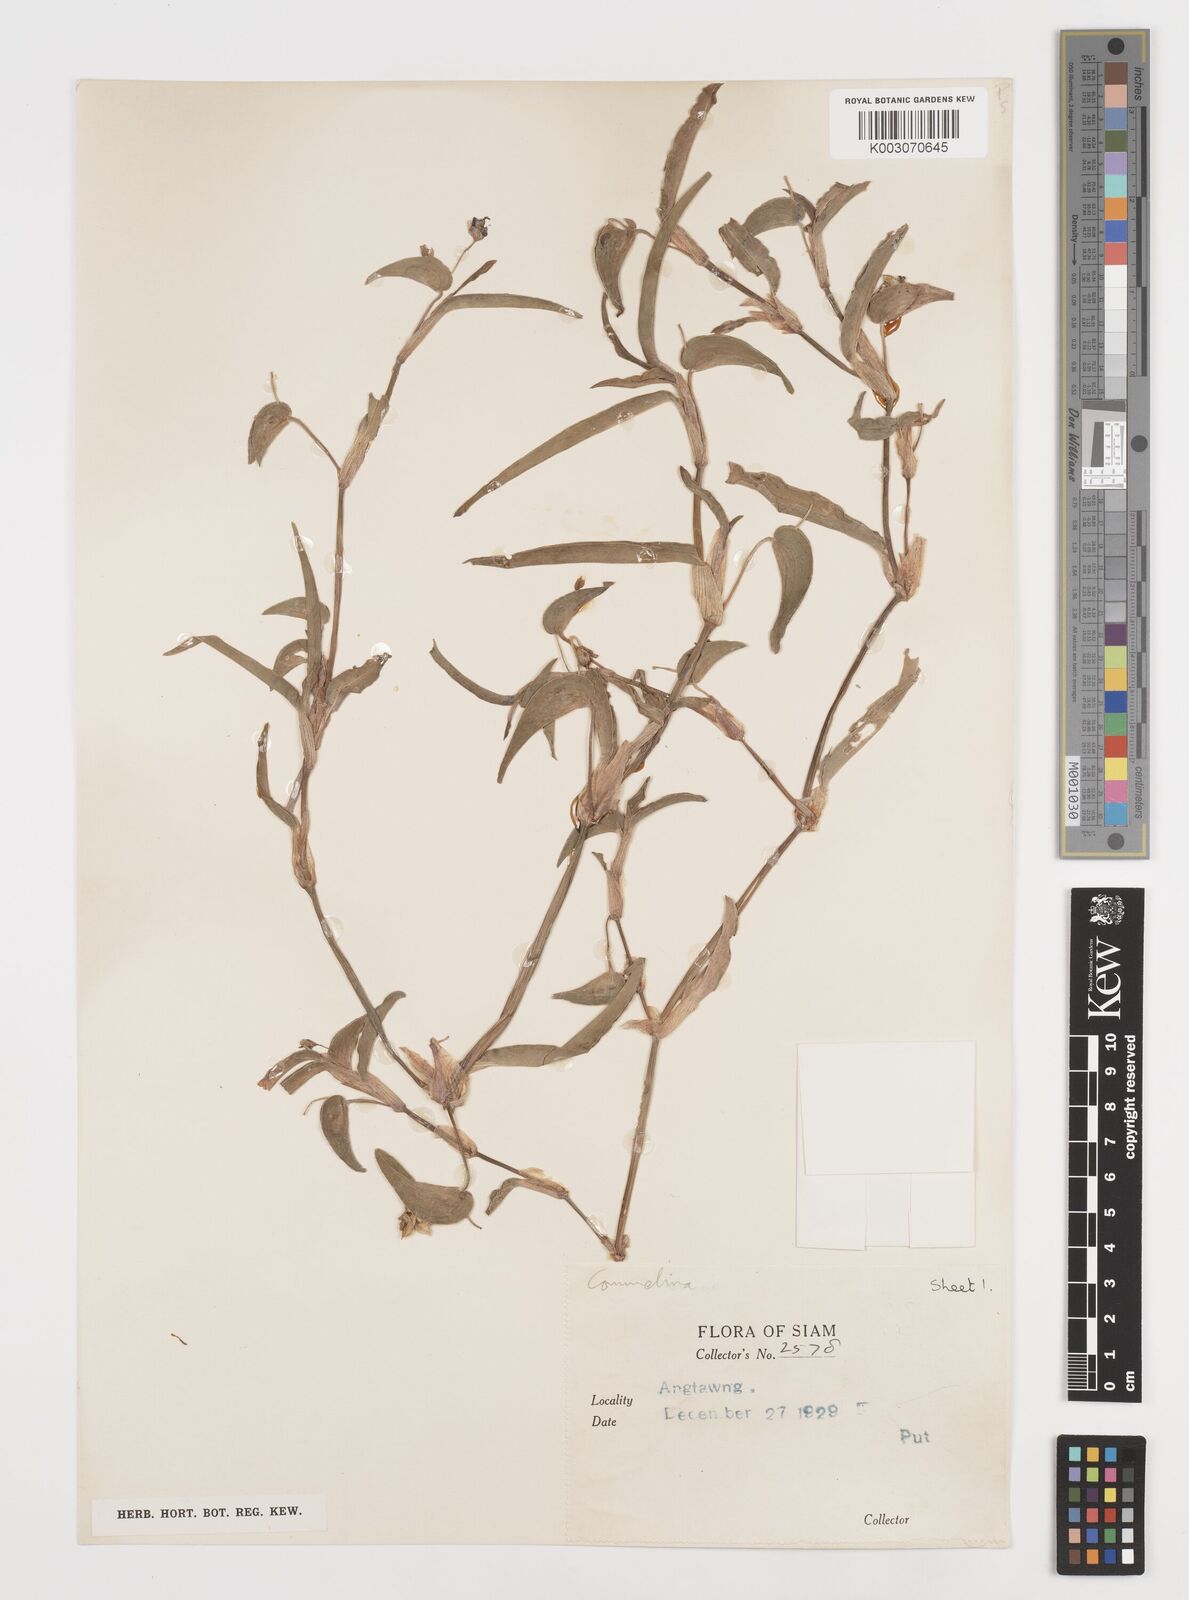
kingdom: Plantae
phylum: Tracheophyta
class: Liliopsida
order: Commelinales
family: Commelinaceae
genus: Commelina
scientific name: Commelina
